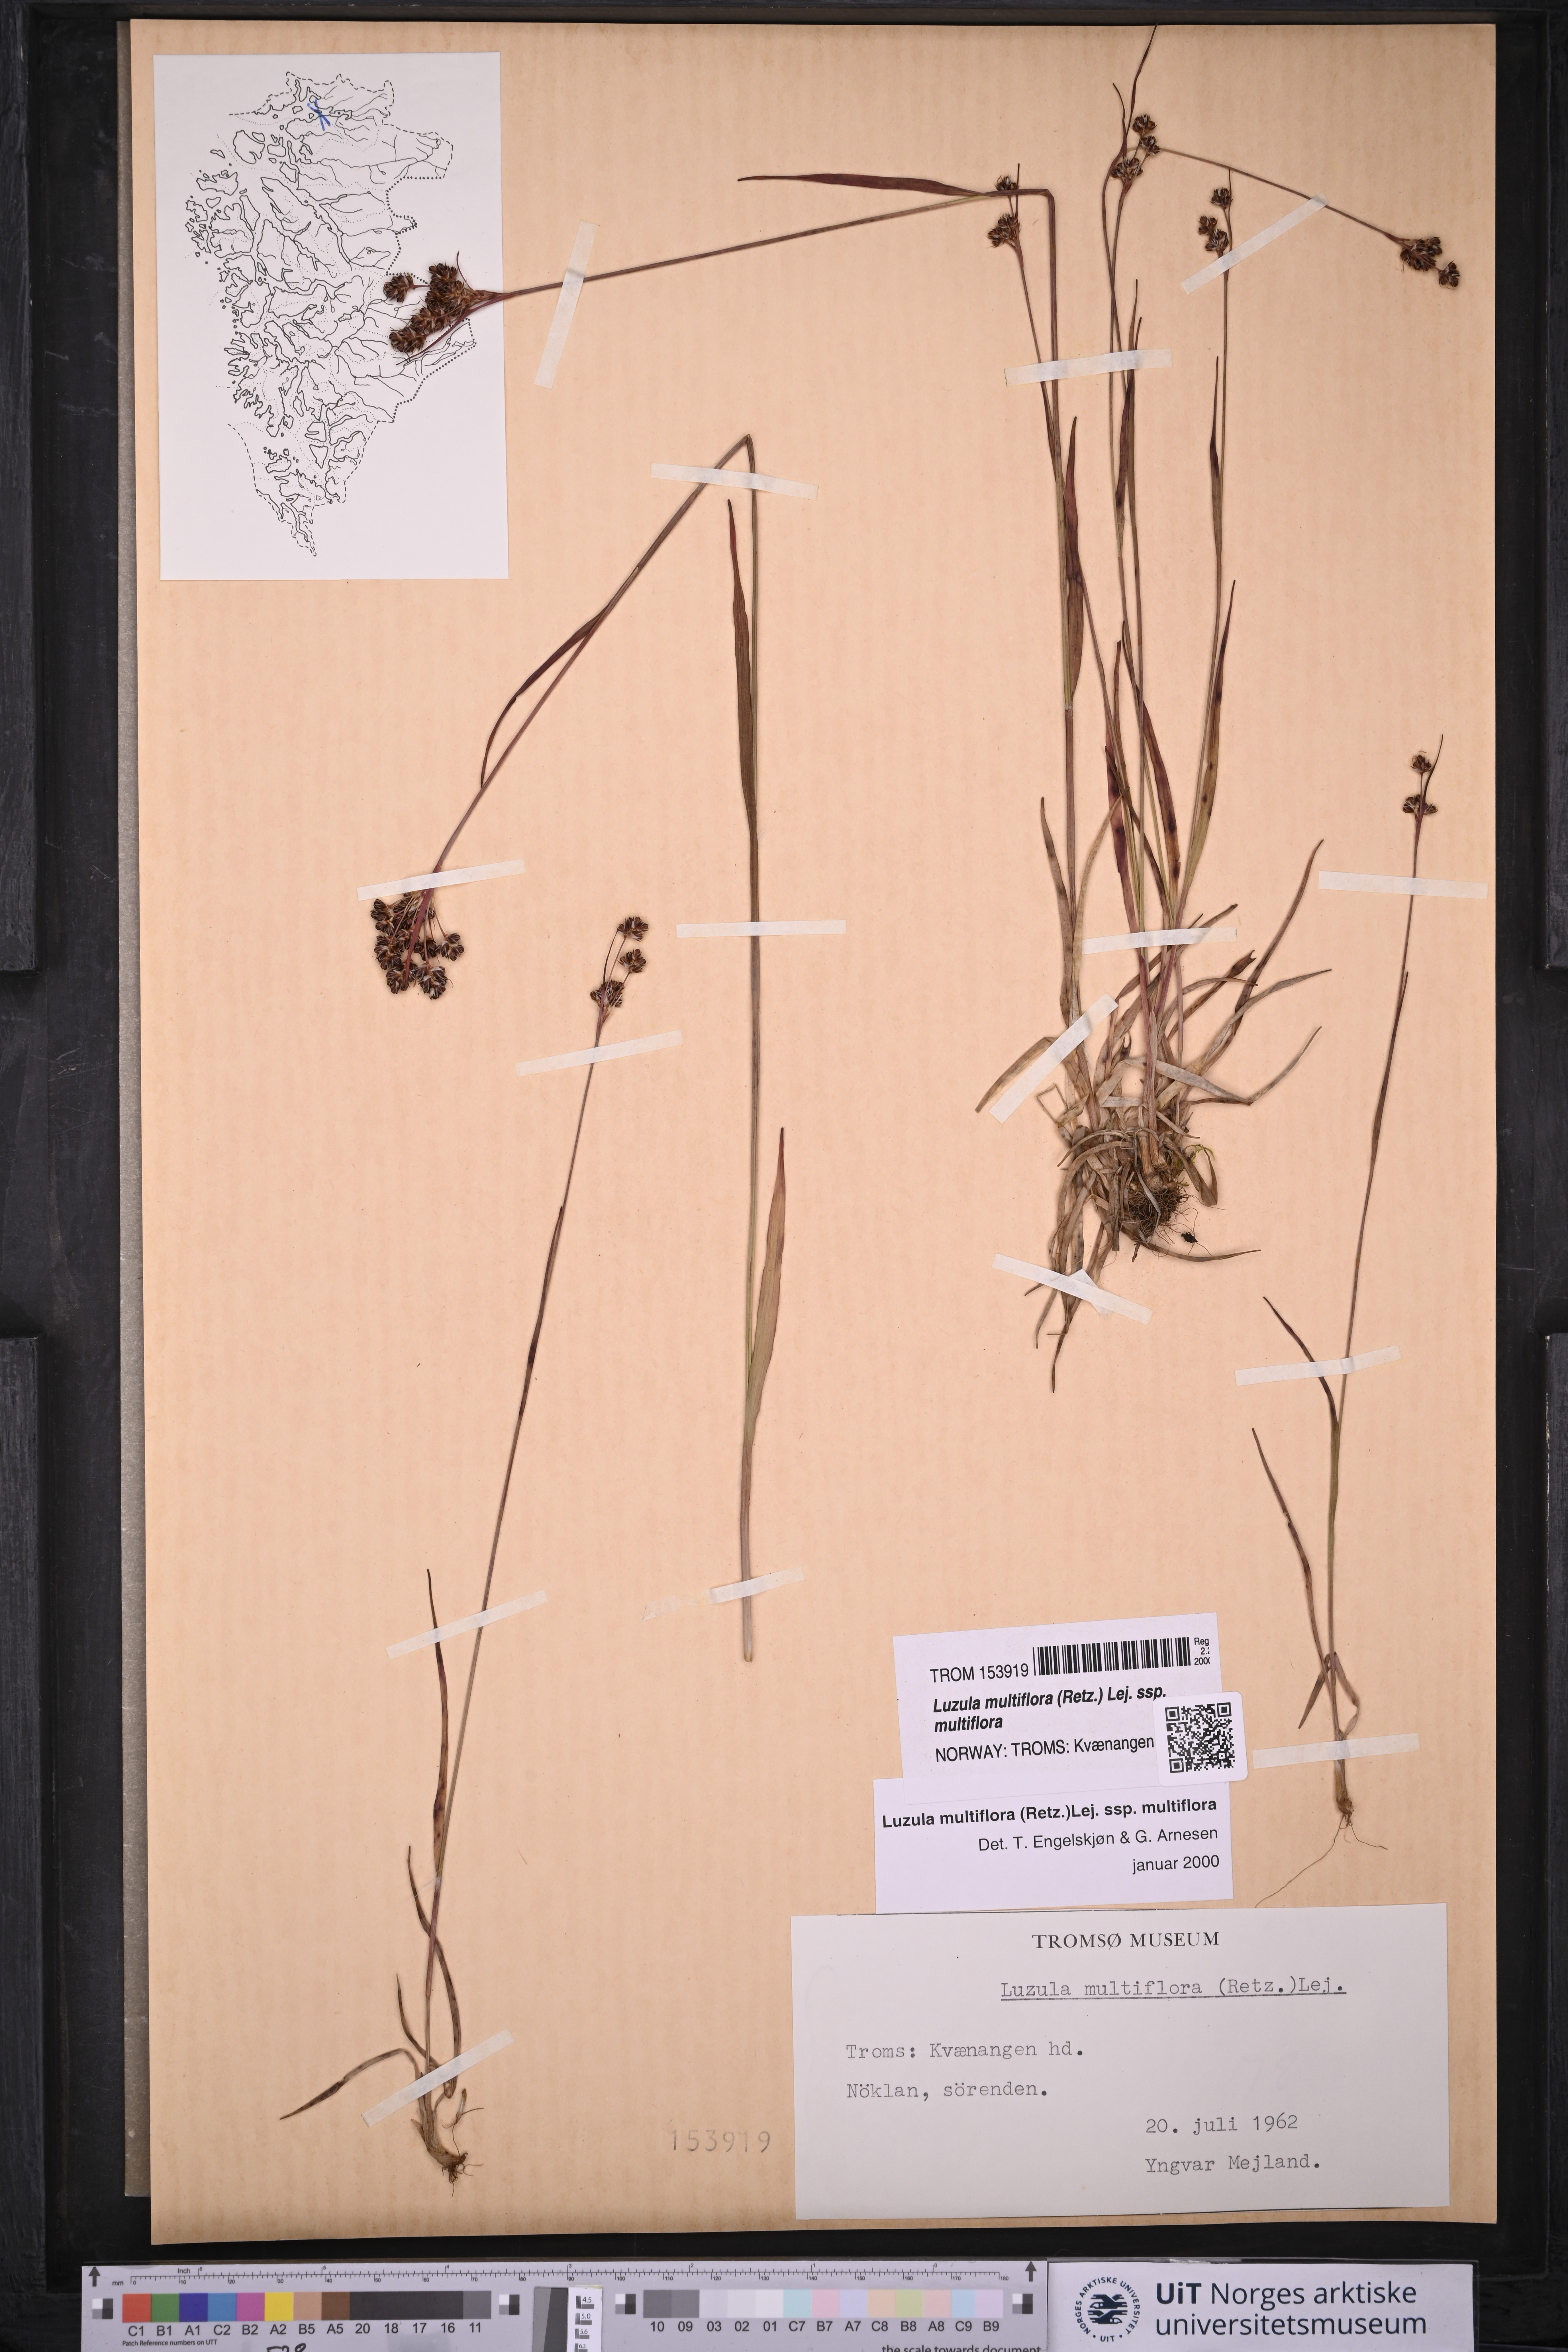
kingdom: Plantae
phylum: Tracheophyta
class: Liliopsida
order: Poales
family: Juncaceae
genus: Luzula
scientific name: Luzula multiflora
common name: Heath wood-rush
